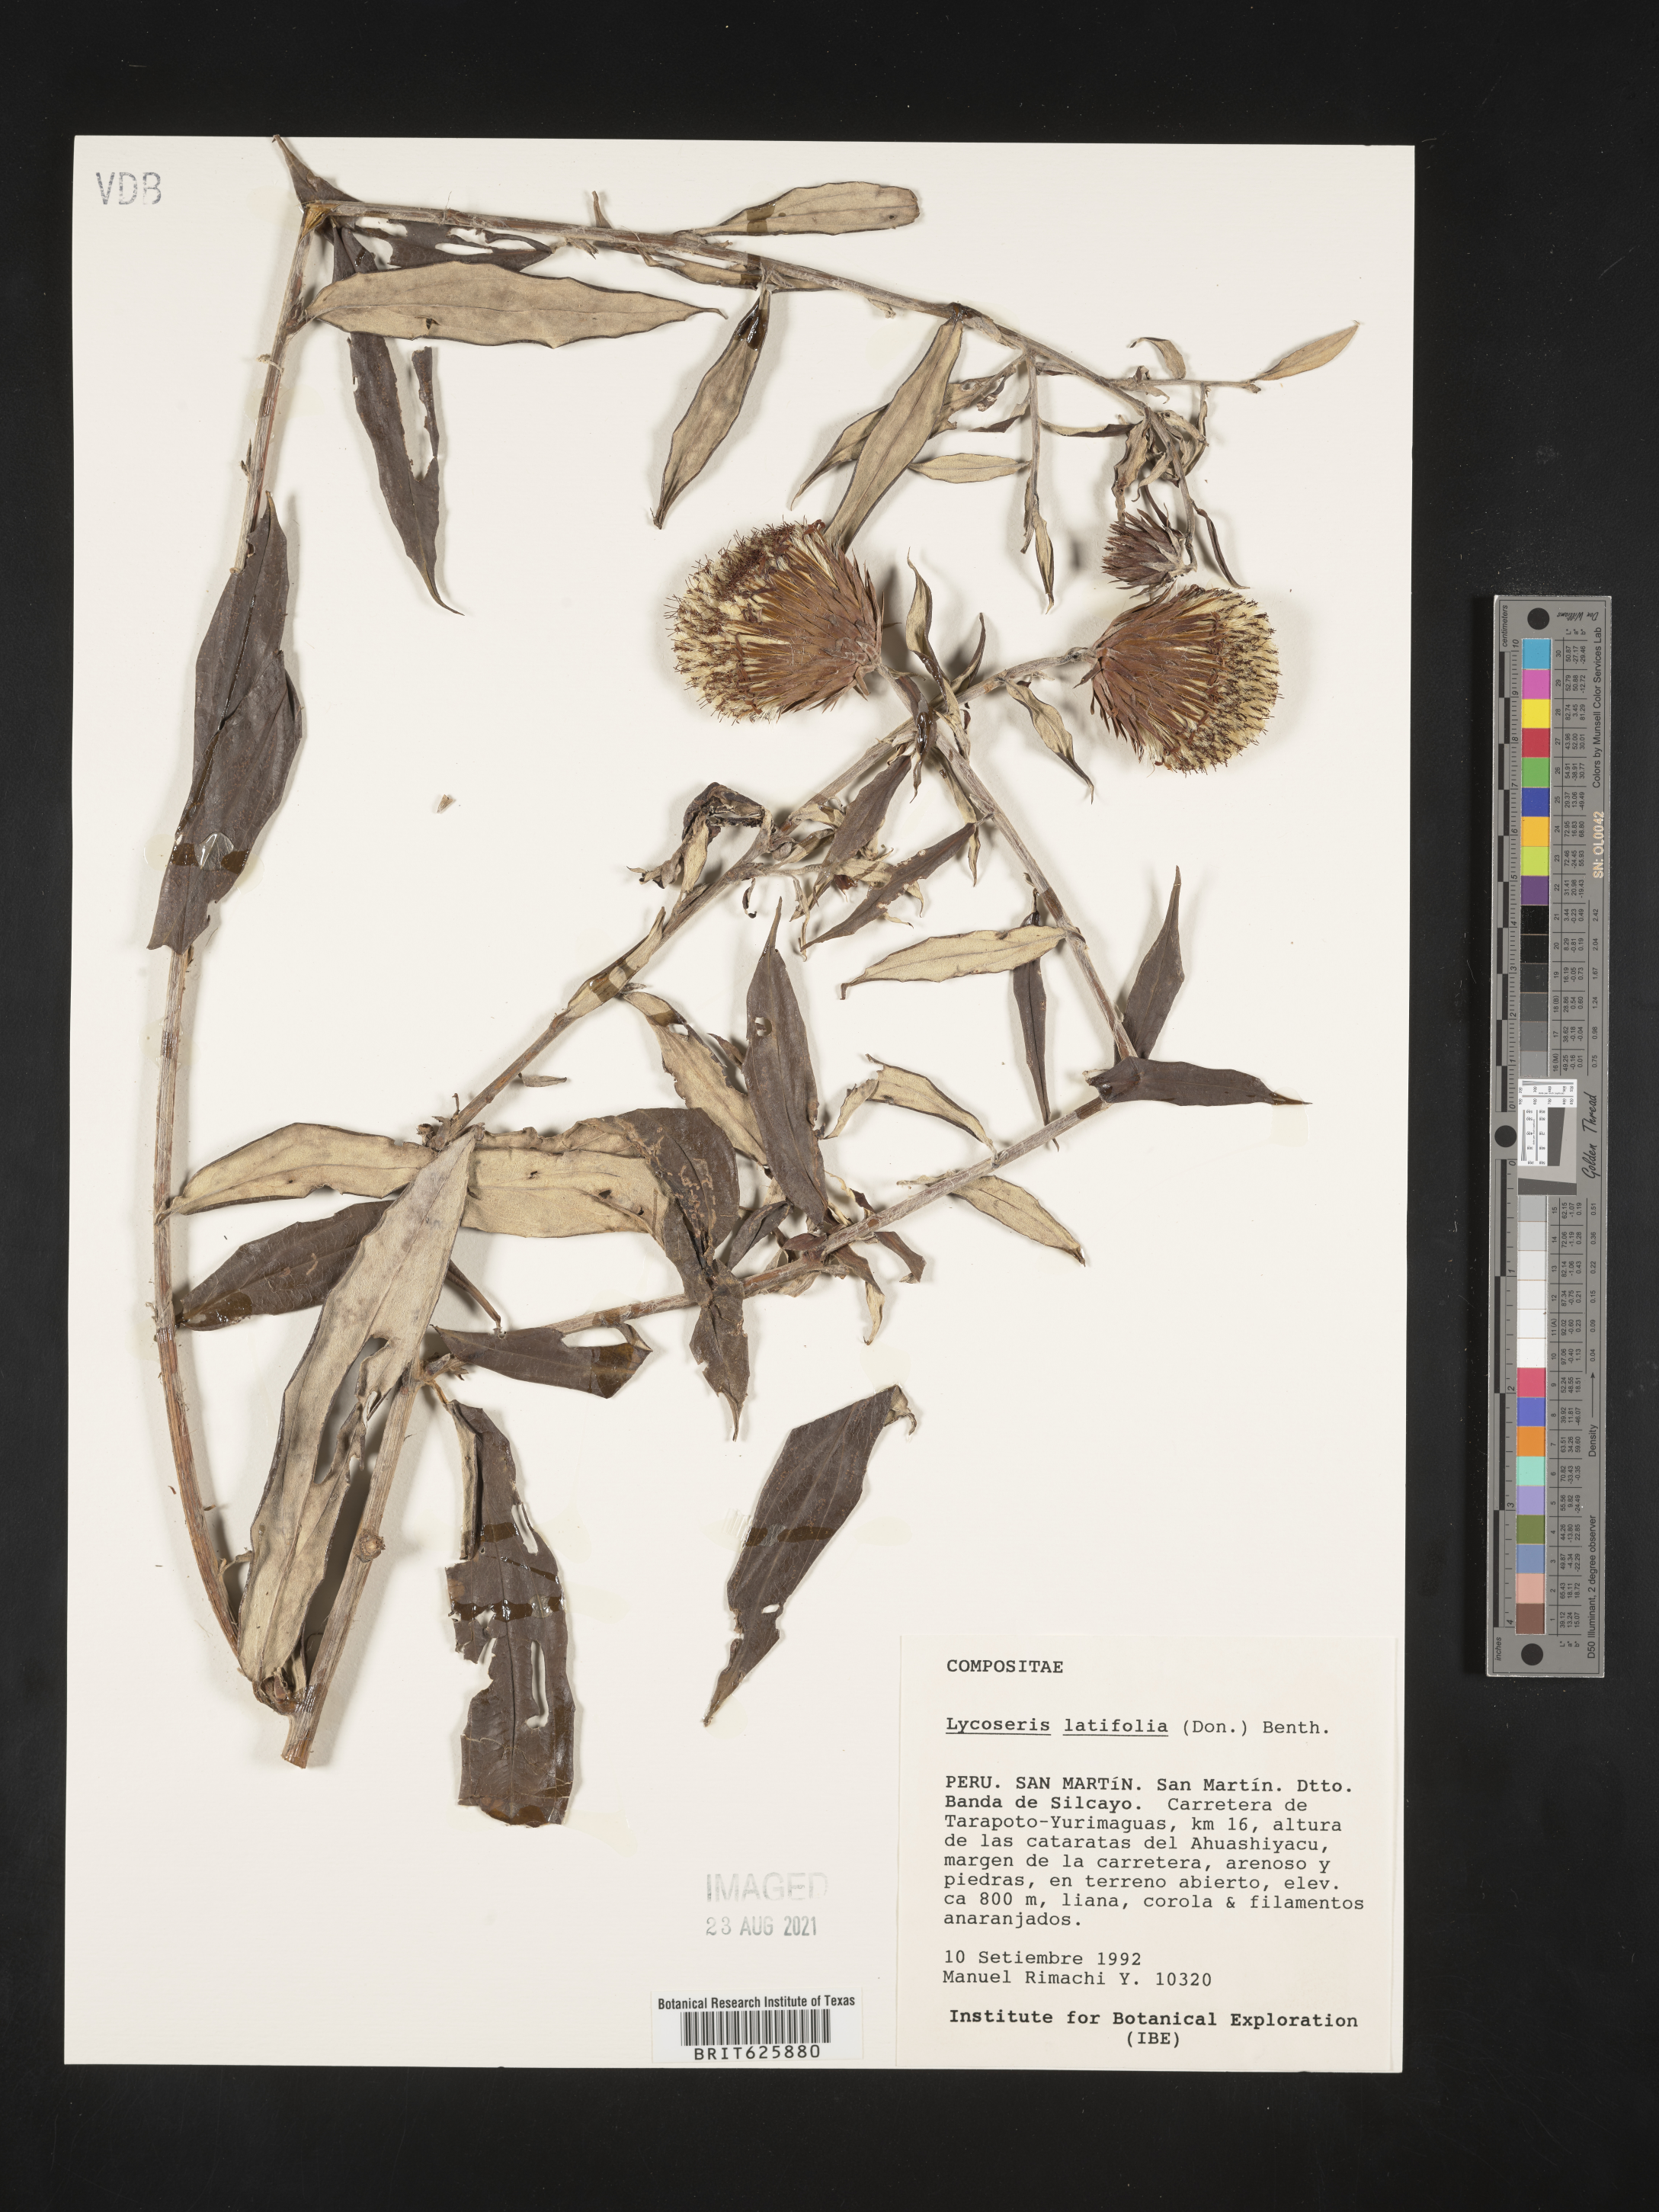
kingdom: Plantae
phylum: Tracheophyta
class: Magnoliopsida
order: Asterales
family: Asteraceae
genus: Lycoseris
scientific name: Lycoseris triplinervia
